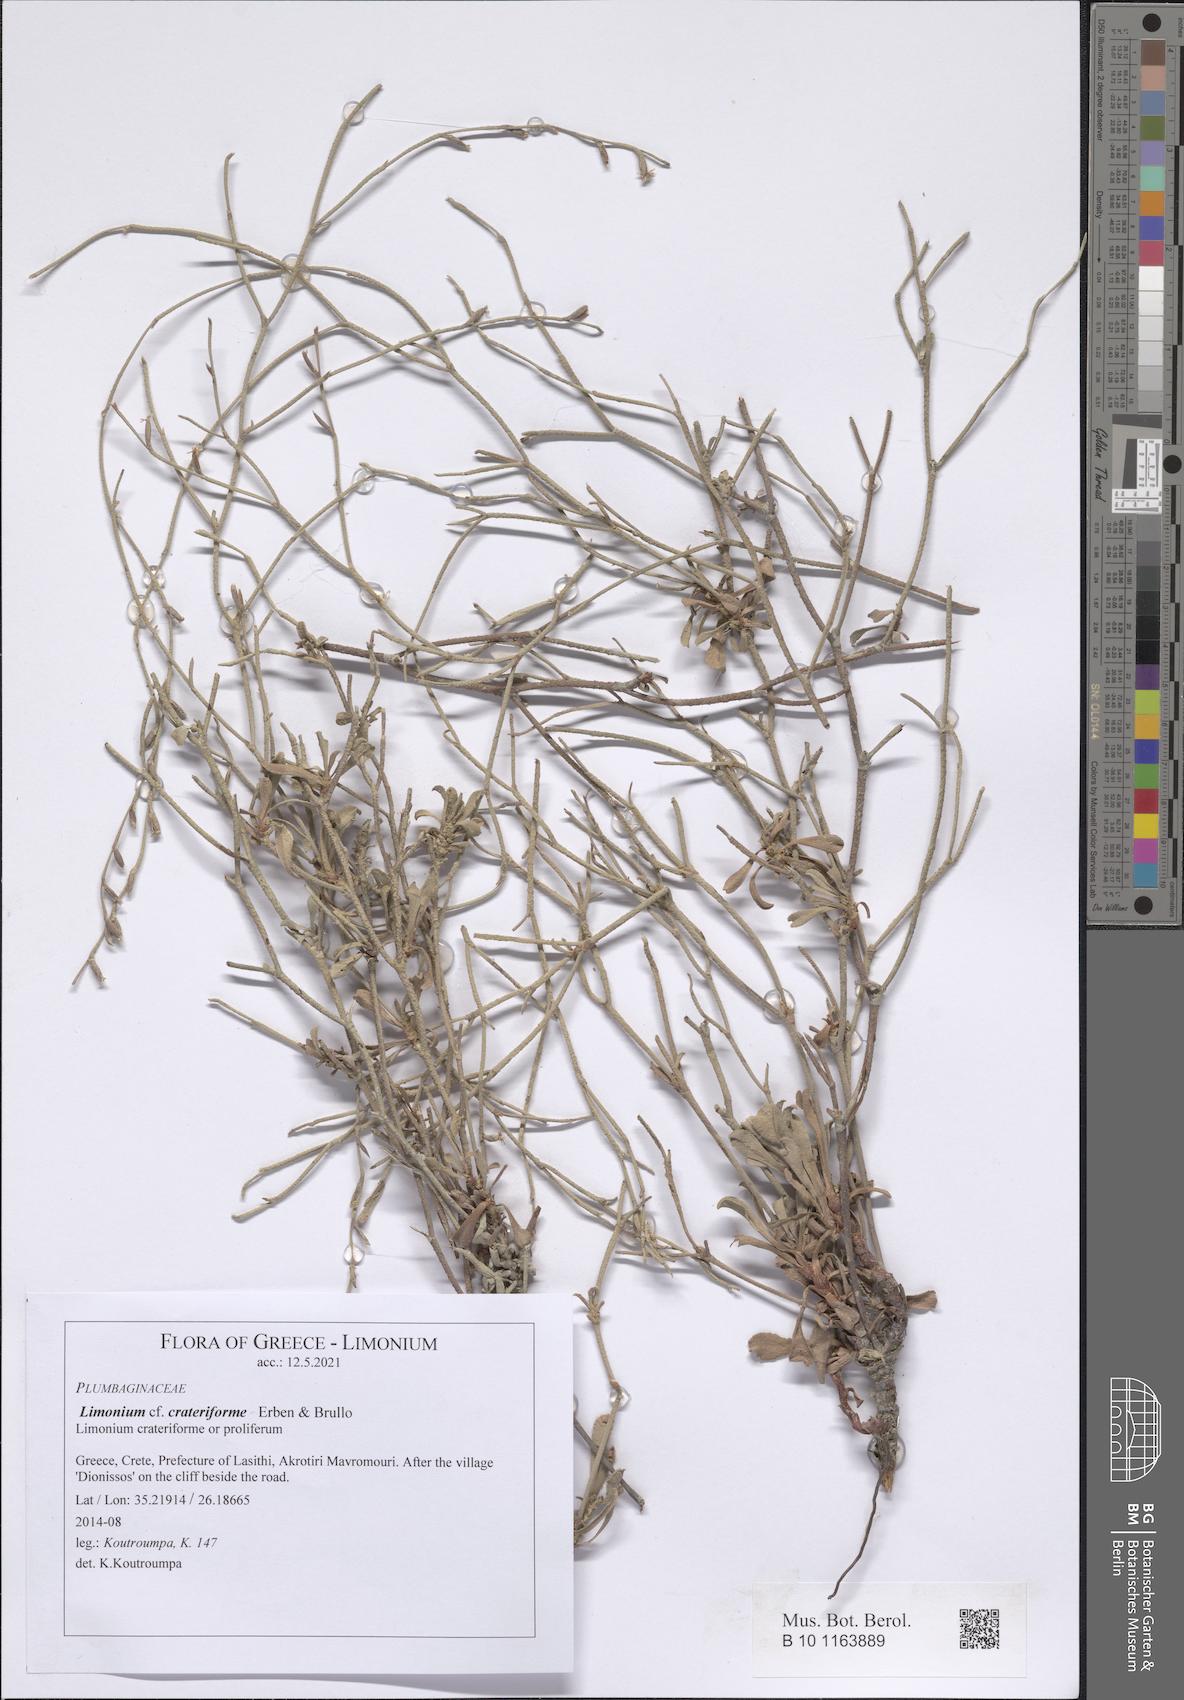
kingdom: Plantae
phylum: Tracheophyta
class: Magnoliopsida
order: Caryophyllales
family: Plumbaginaceae
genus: Limonium
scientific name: Limonium crateriforme
